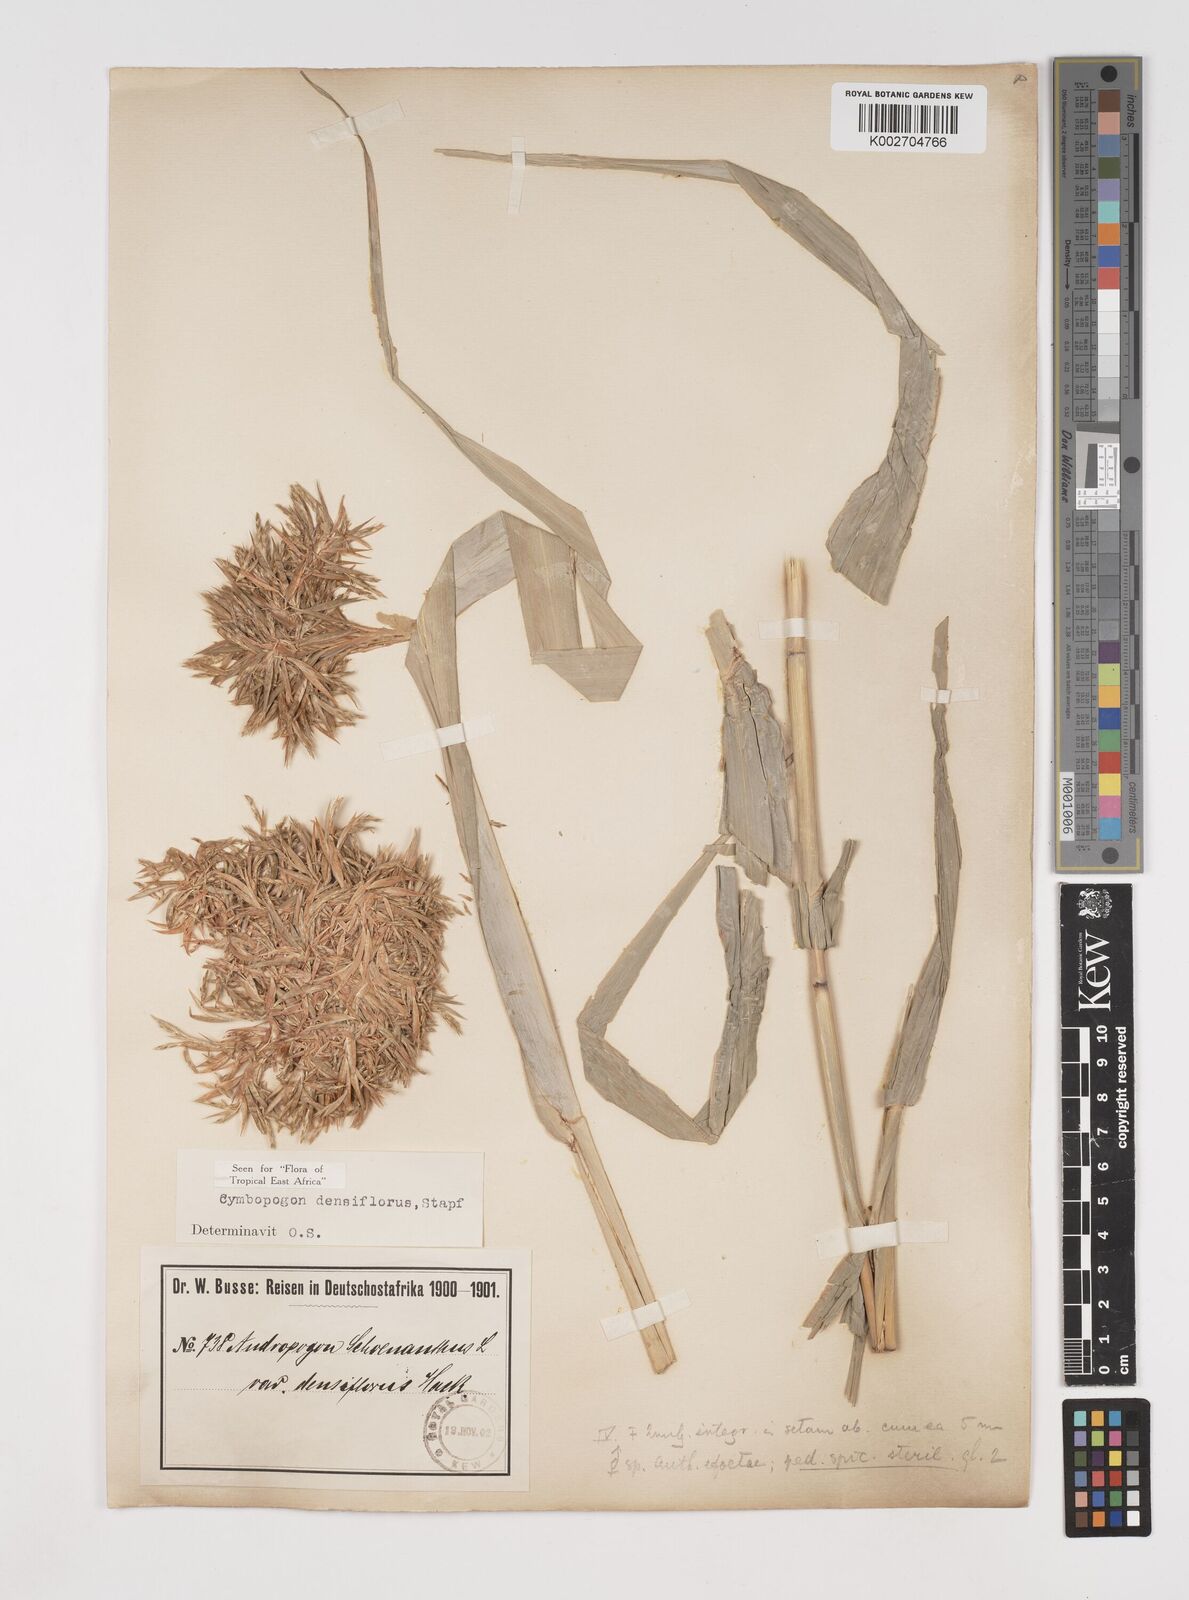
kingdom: Plantae
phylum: Tracheophyta
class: Liliopsida
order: Poales
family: Poaceae
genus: Cymbopogon
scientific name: Cymbopogon densiflorus
